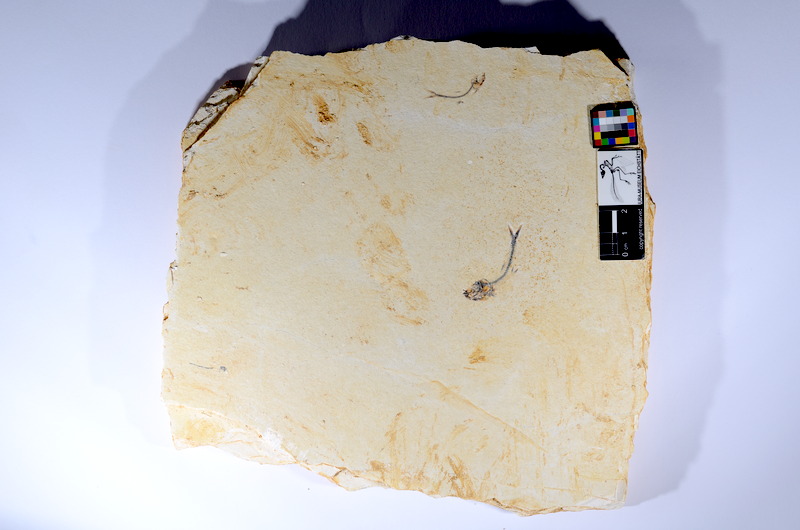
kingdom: Animalia
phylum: Chordata
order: Salmoniformes
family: Orthogonikleithridae
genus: Orthogonikleithrus
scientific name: Orthogonikleithrus hoelli
